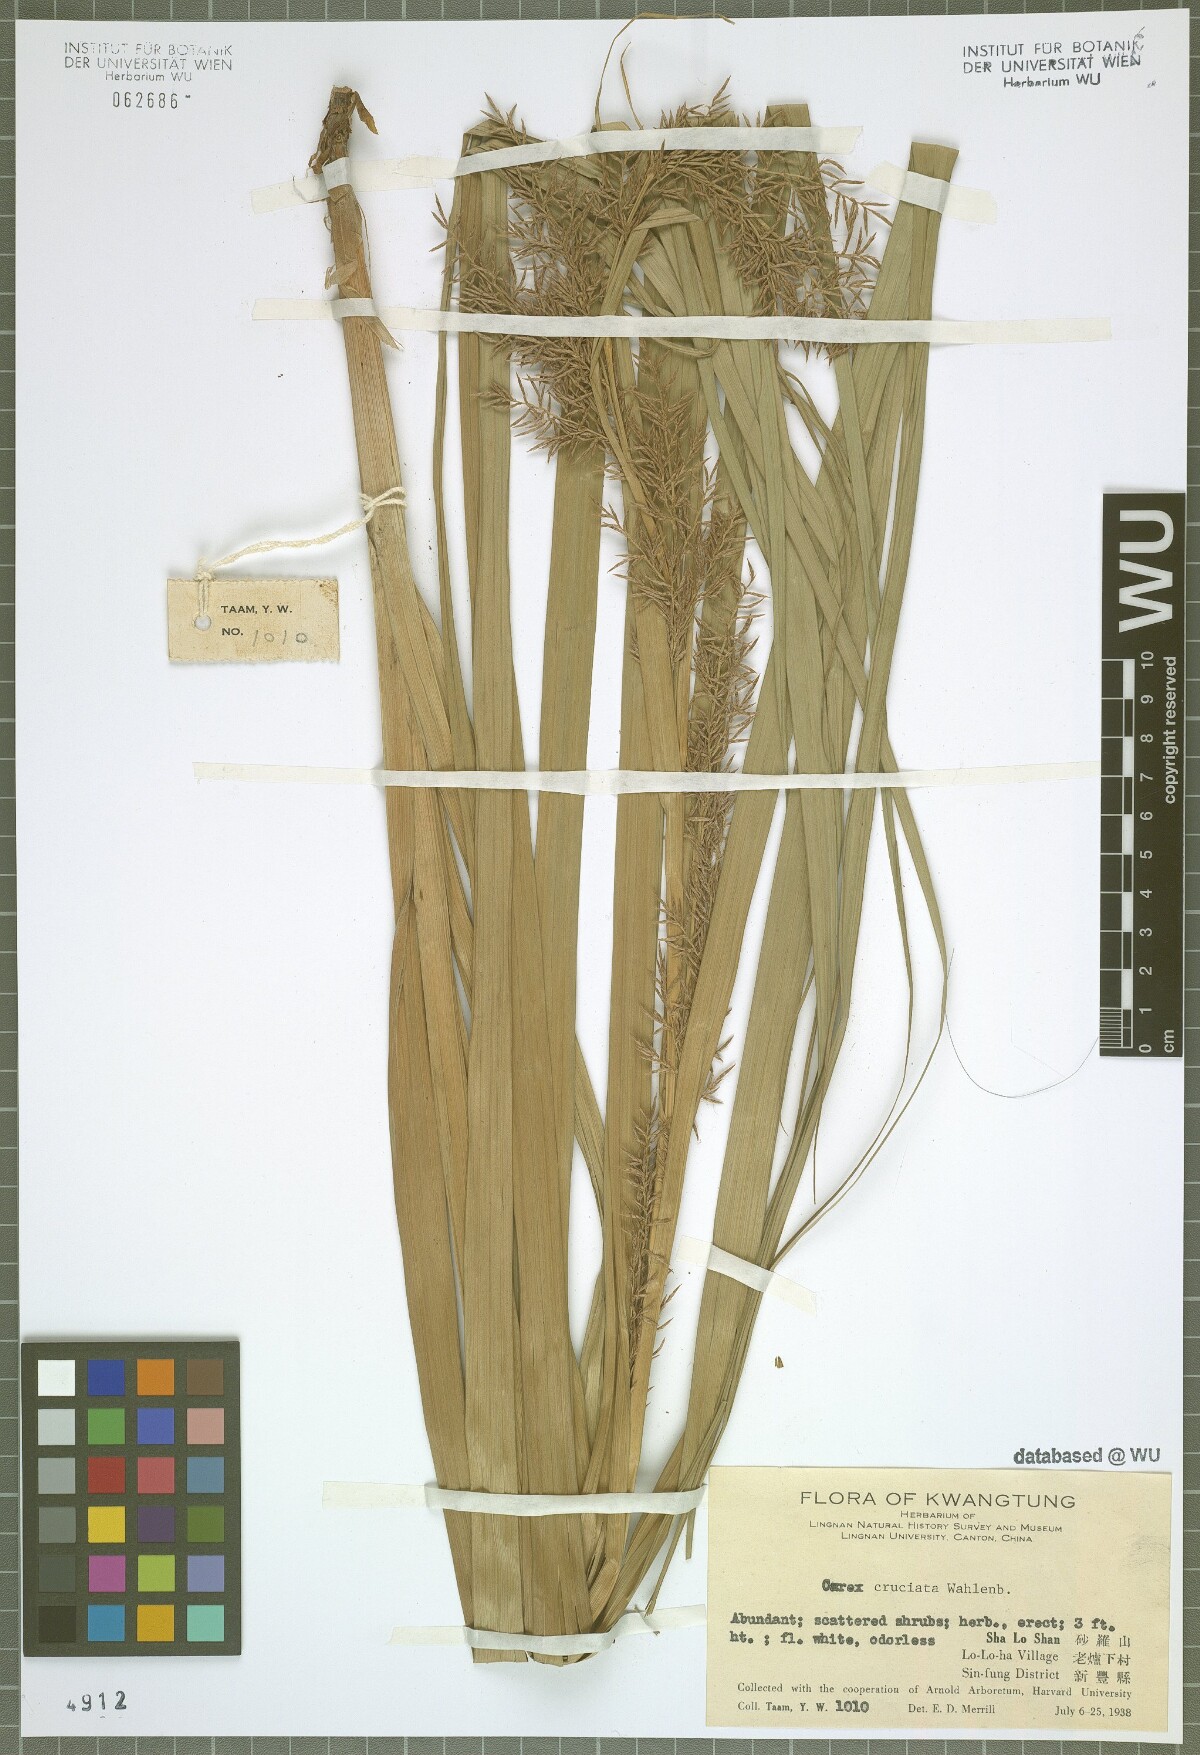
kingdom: Plantae
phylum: Tracheophyta
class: Liliopsida
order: Poales
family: Cyperaceae
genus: Carex
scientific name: Carex cruciata
